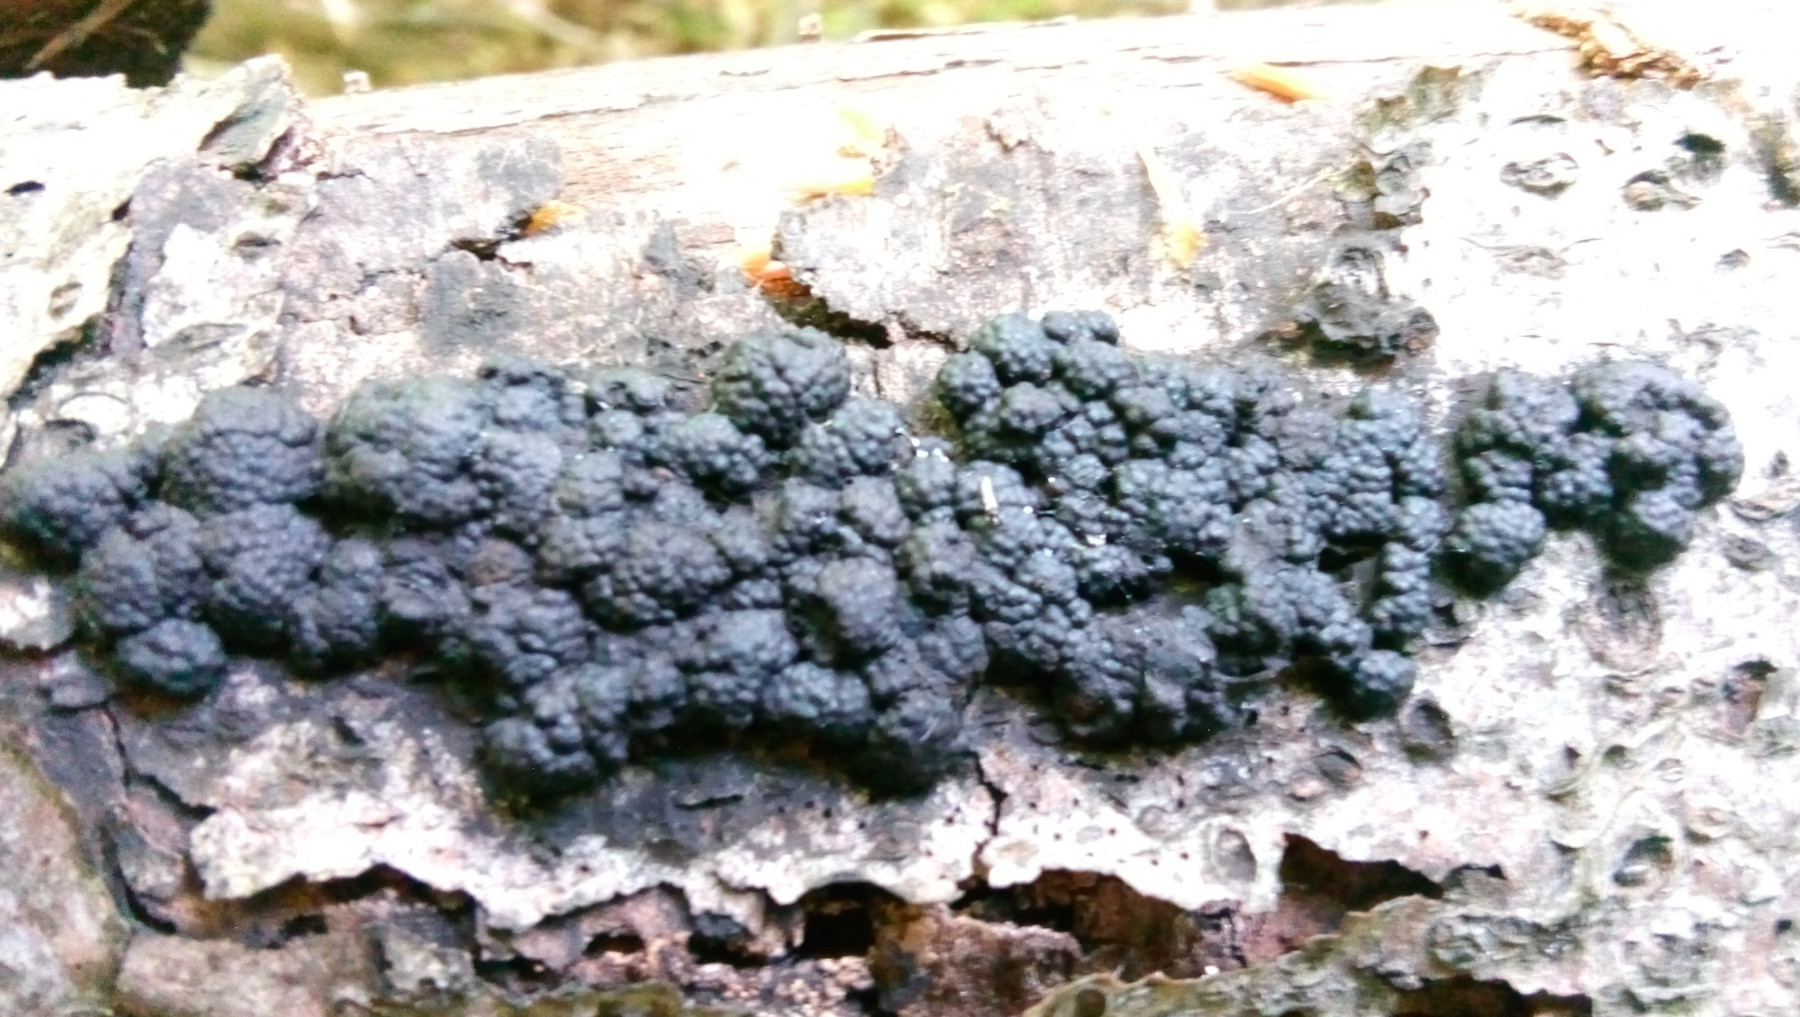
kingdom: Fungi
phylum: Ascomycota
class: Sordariomycetes
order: Xylariales
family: Hypoxylaceae
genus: Jackrogersella
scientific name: Jackrogersella cohaerens
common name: sammenflydende kulbær
